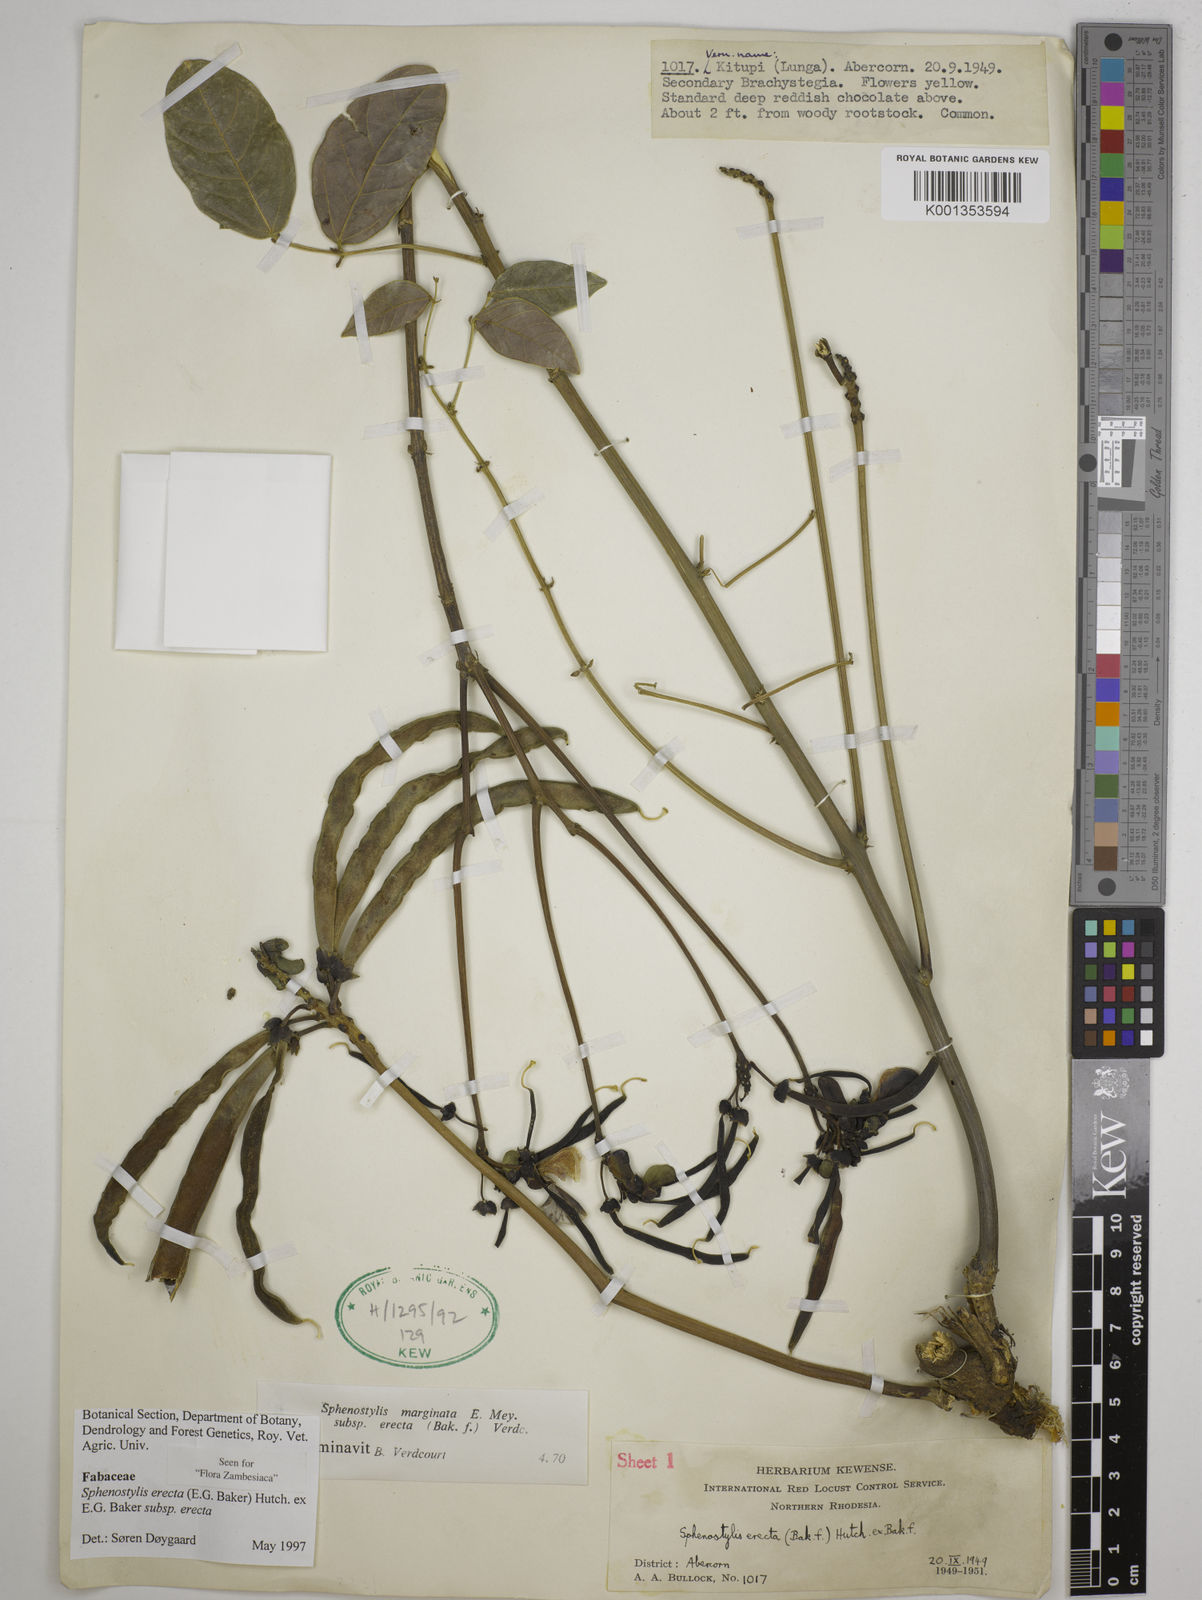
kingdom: Plantae
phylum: Tracheophyta
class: Magnoliopsida
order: Fabales
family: Fabaceae
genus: Sphenostylis
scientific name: Sphenostylis erecta
